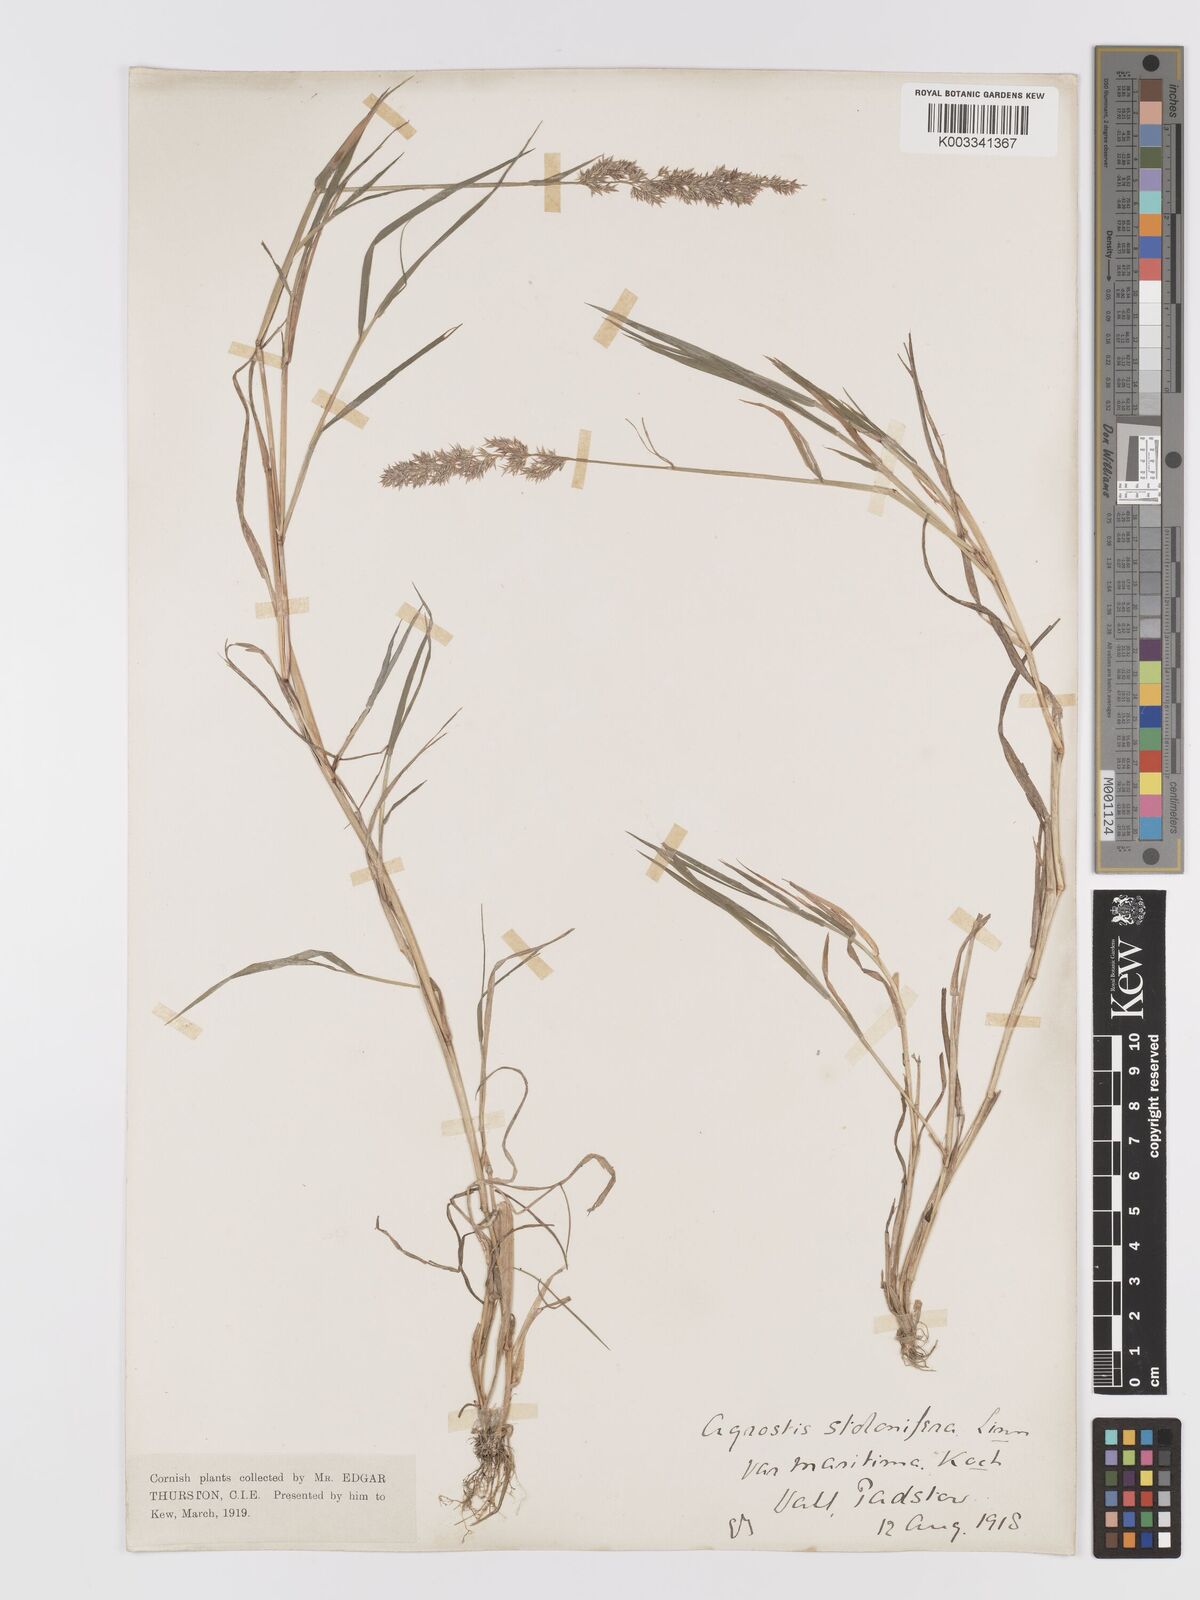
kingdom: Plantae
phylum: Tracheophyta
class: Liliopsida
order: Poales
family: Poaceae
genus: Agrostis
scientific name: Agrostis stolonifera
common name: Creeping bentgrass
